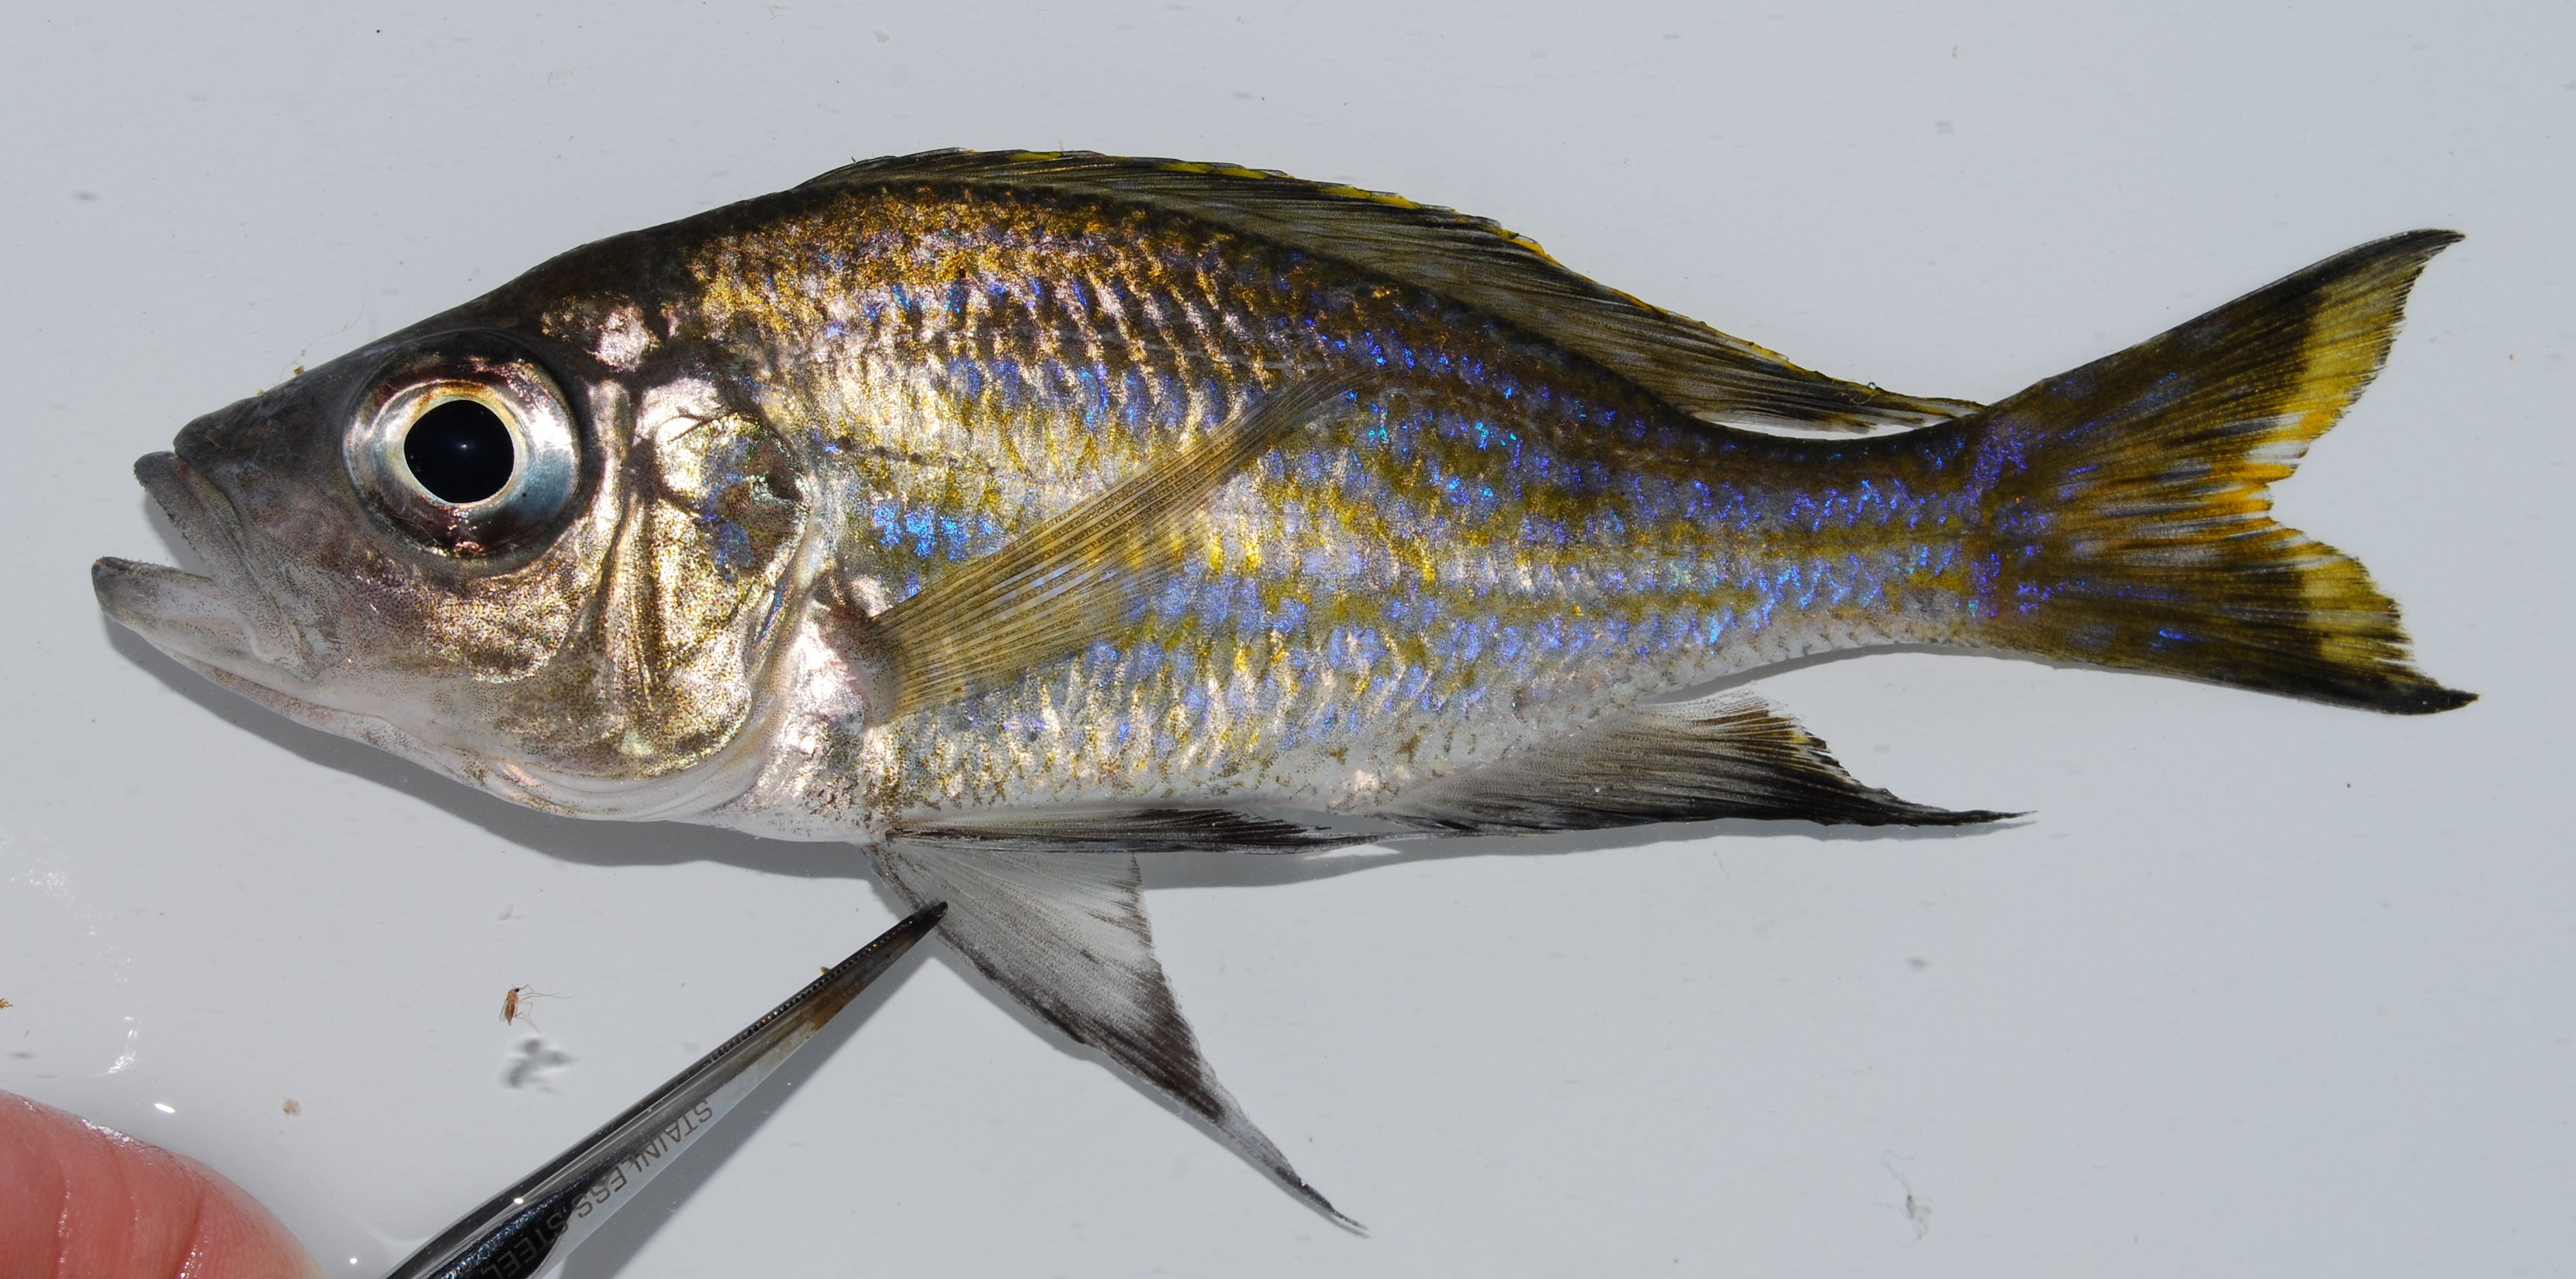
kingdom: Animalia
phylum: Chordata
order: Perciformes
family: Cichlidae
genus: Aulonocranus
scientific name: Aulonocranus dewindti
